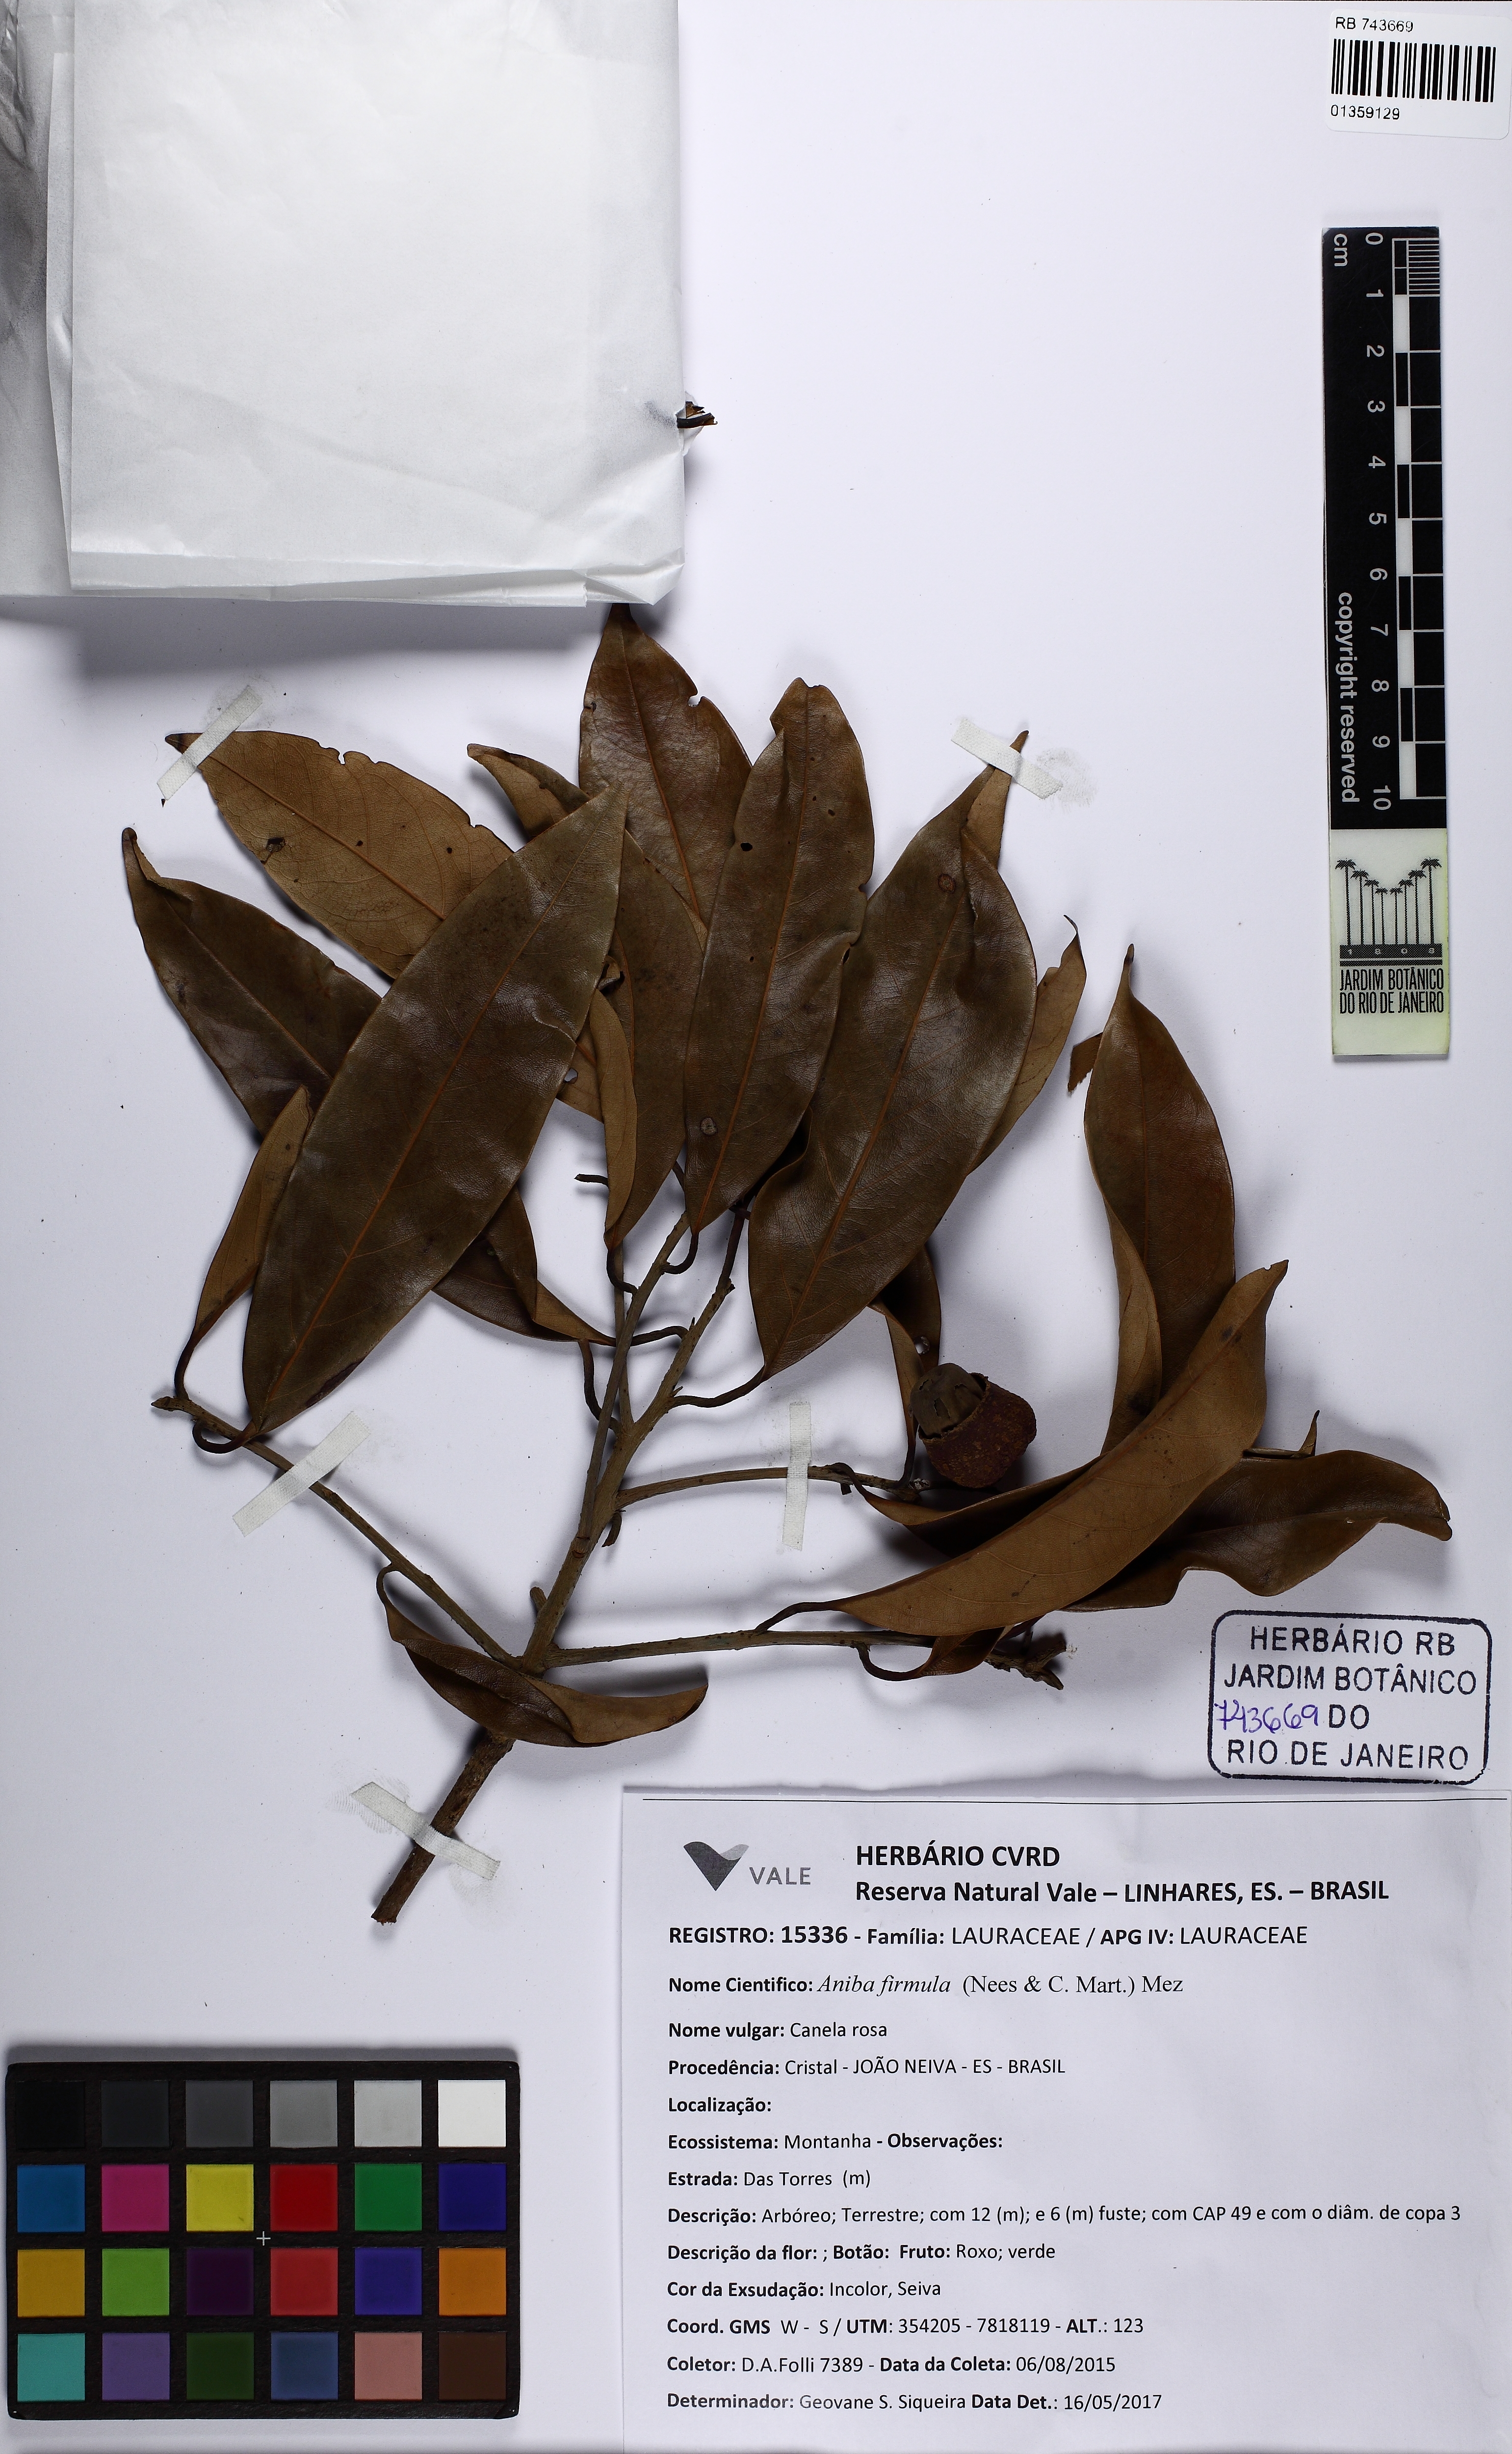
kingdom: Plantae
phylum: Tracheophyta
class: Magnoliopsida
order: Laurales
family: Lauraceae
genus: Aniba
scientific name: Aniba firmula
